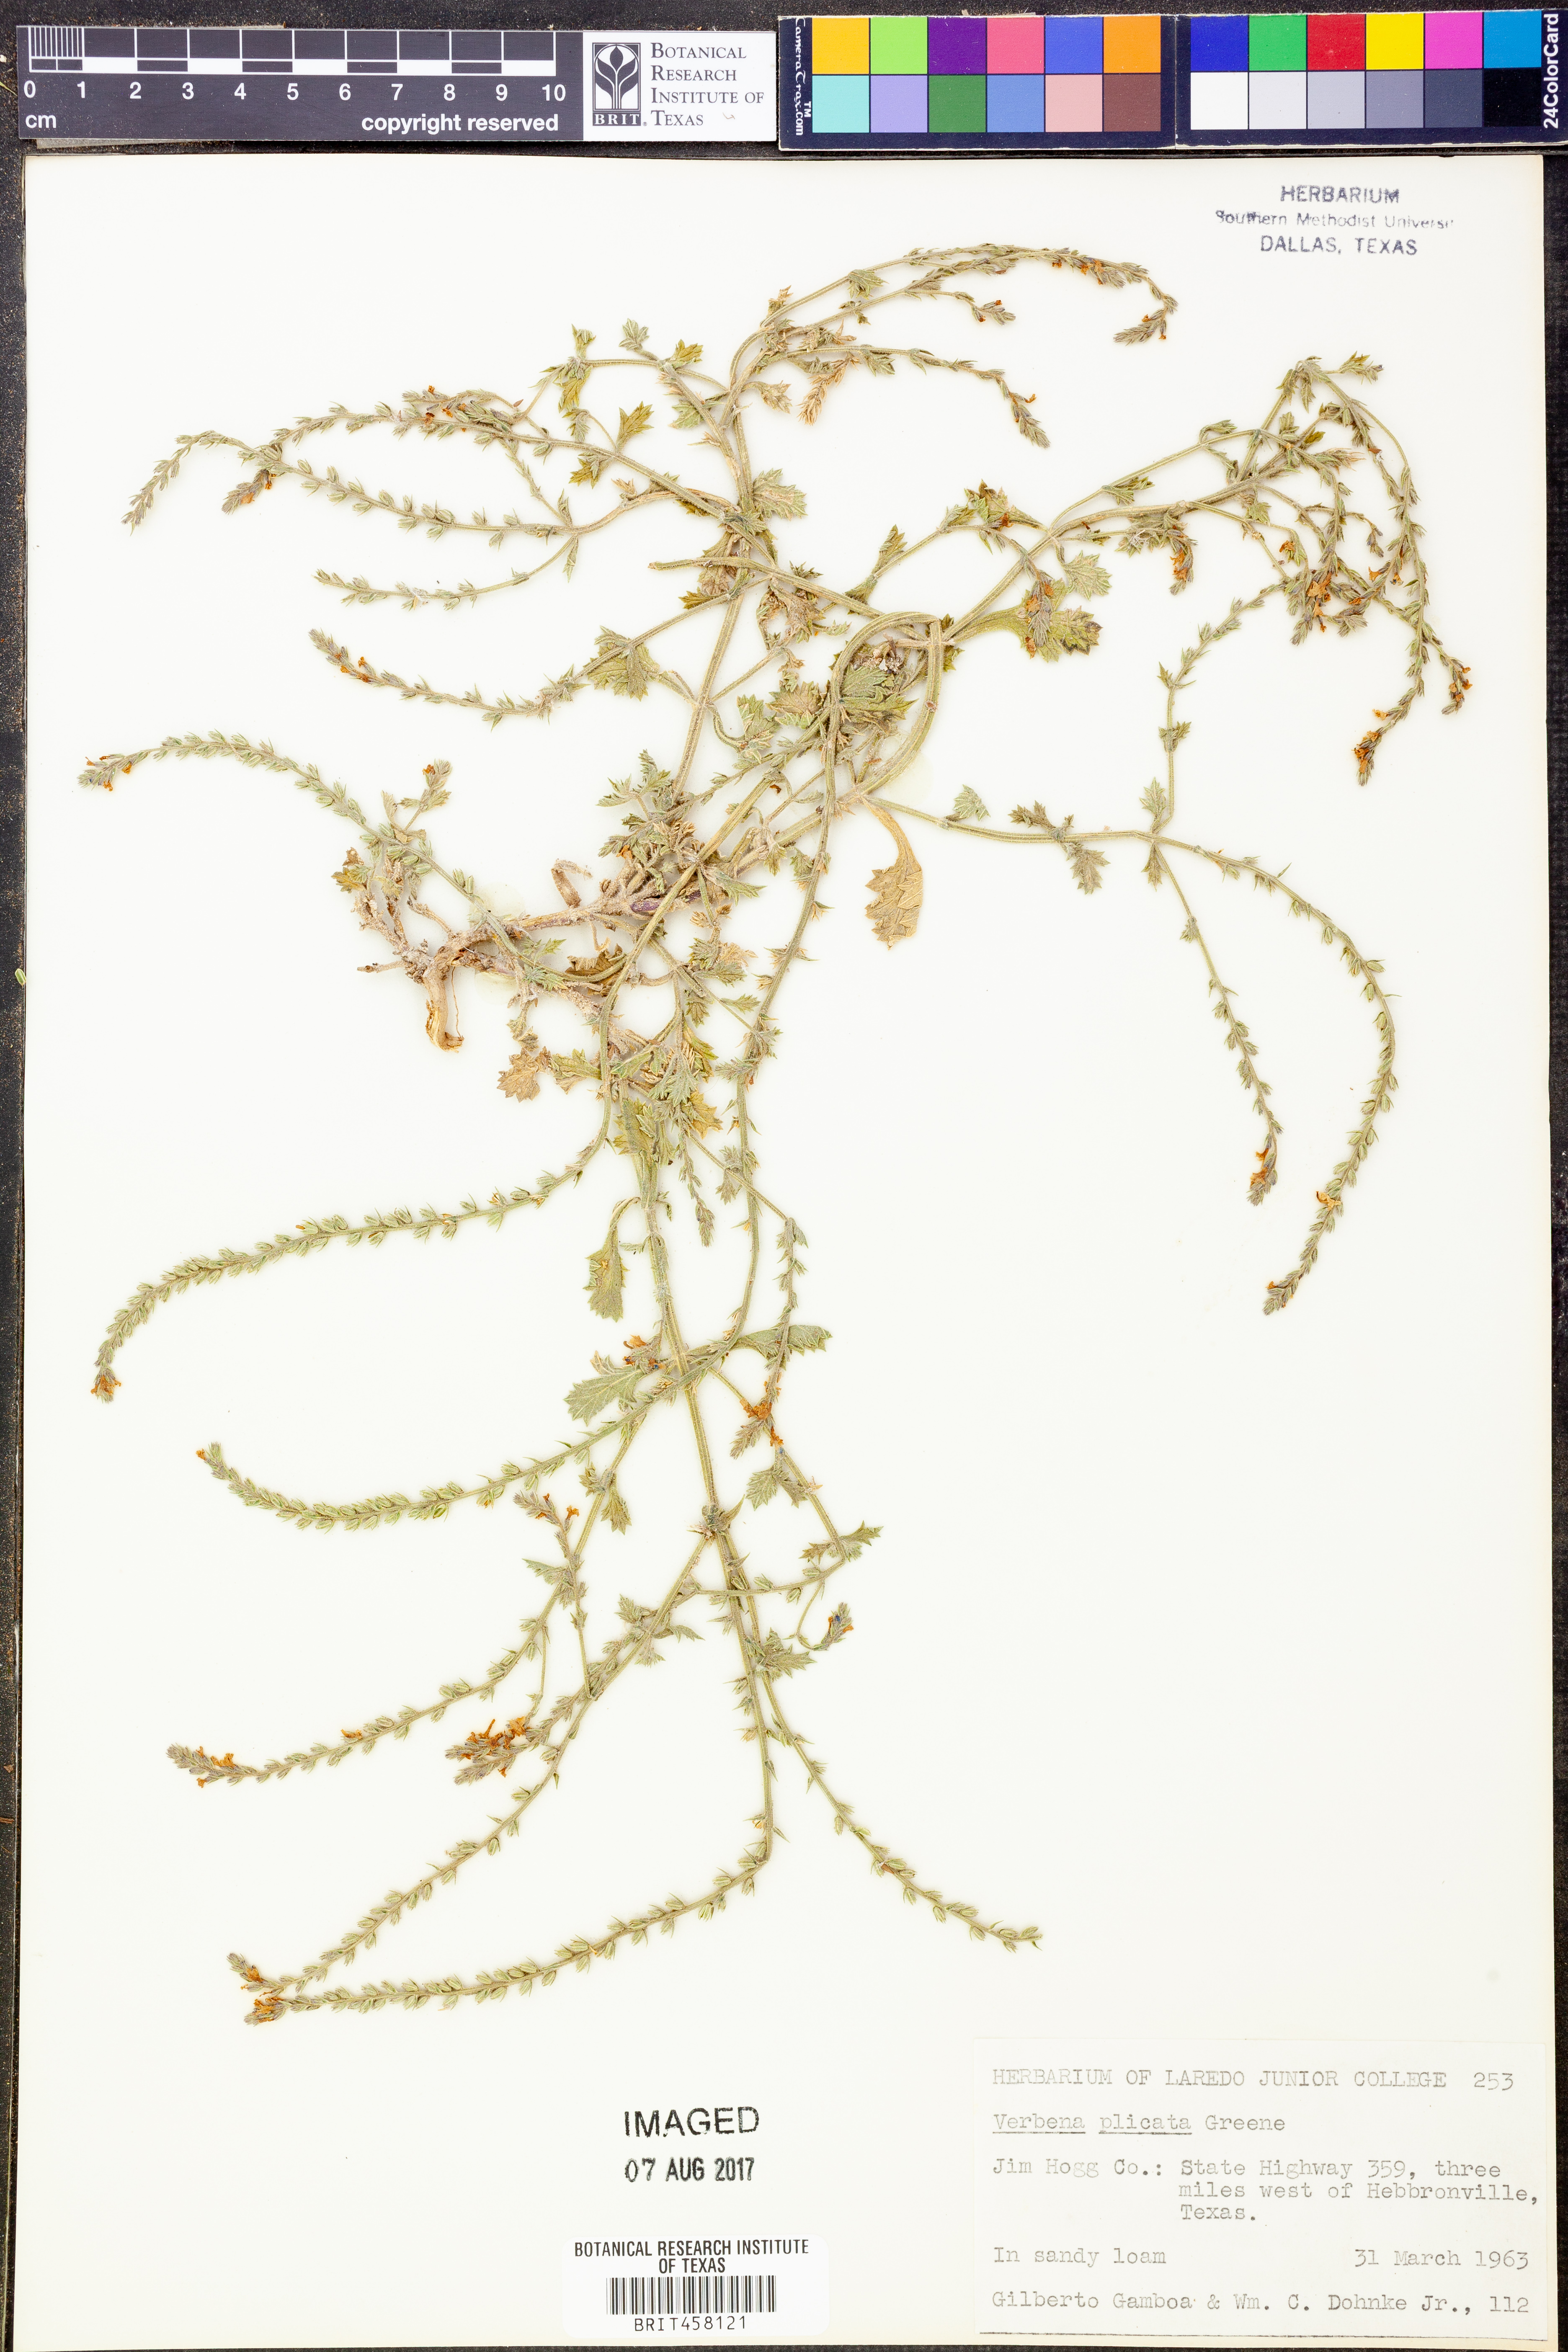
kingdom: Plantae
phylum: Tracheophyta
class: Magnoliopsida
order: Lamiales
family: Verbenaceae
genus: Verbena
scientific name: Verbena plicata
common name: Fan-leaf vervain
